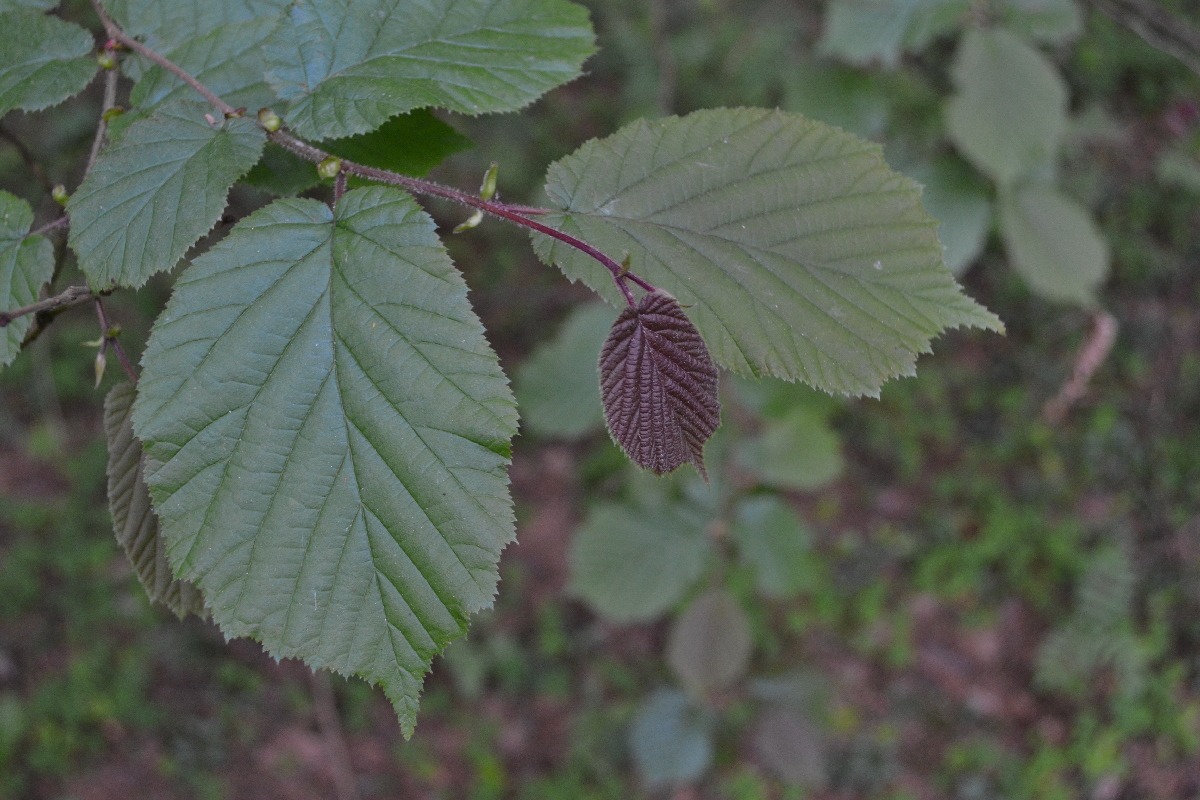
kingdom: Plantae
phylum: Tracheophyta
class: Magnoliopsida
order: Fagales
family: Betulaceae
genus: Corylus
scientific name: Corylus avellana
